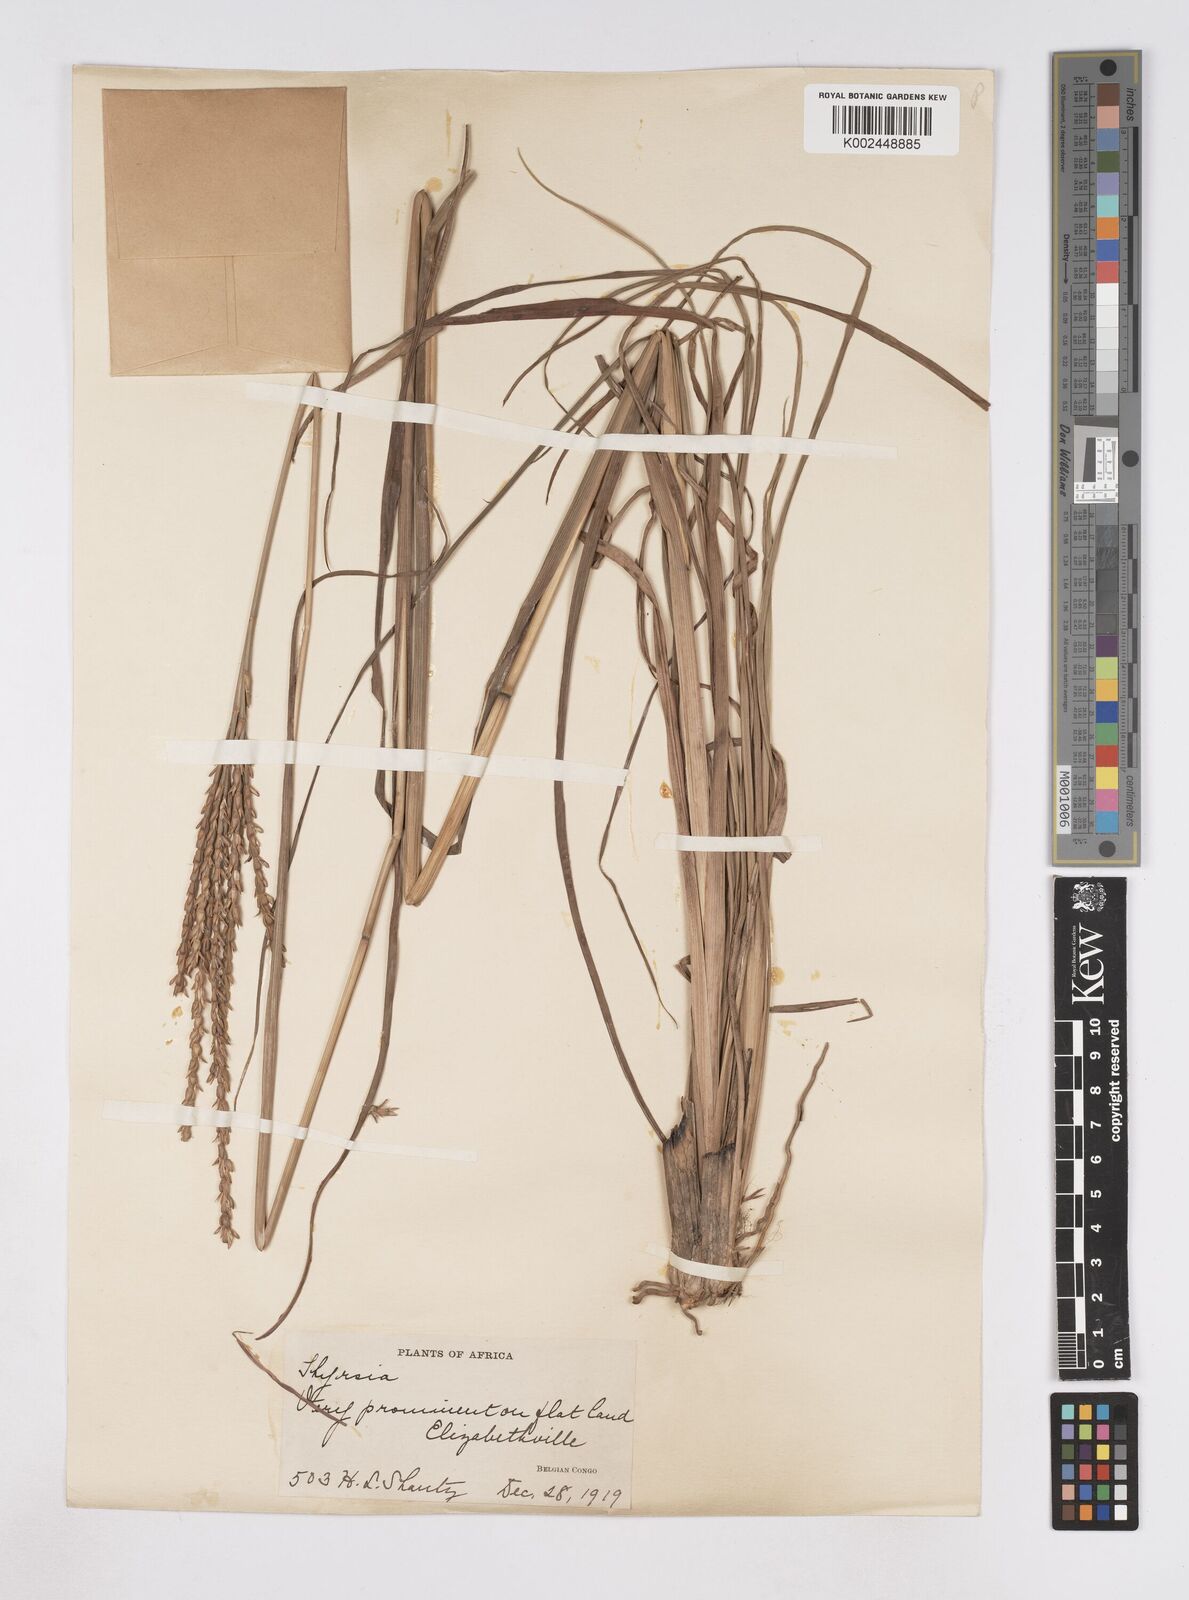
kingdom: Plantae
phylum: Tracheophyta
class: Liliopsida
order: Poales
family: Poaceae
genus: Thyrsia
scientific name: Thyrsia huillensis
